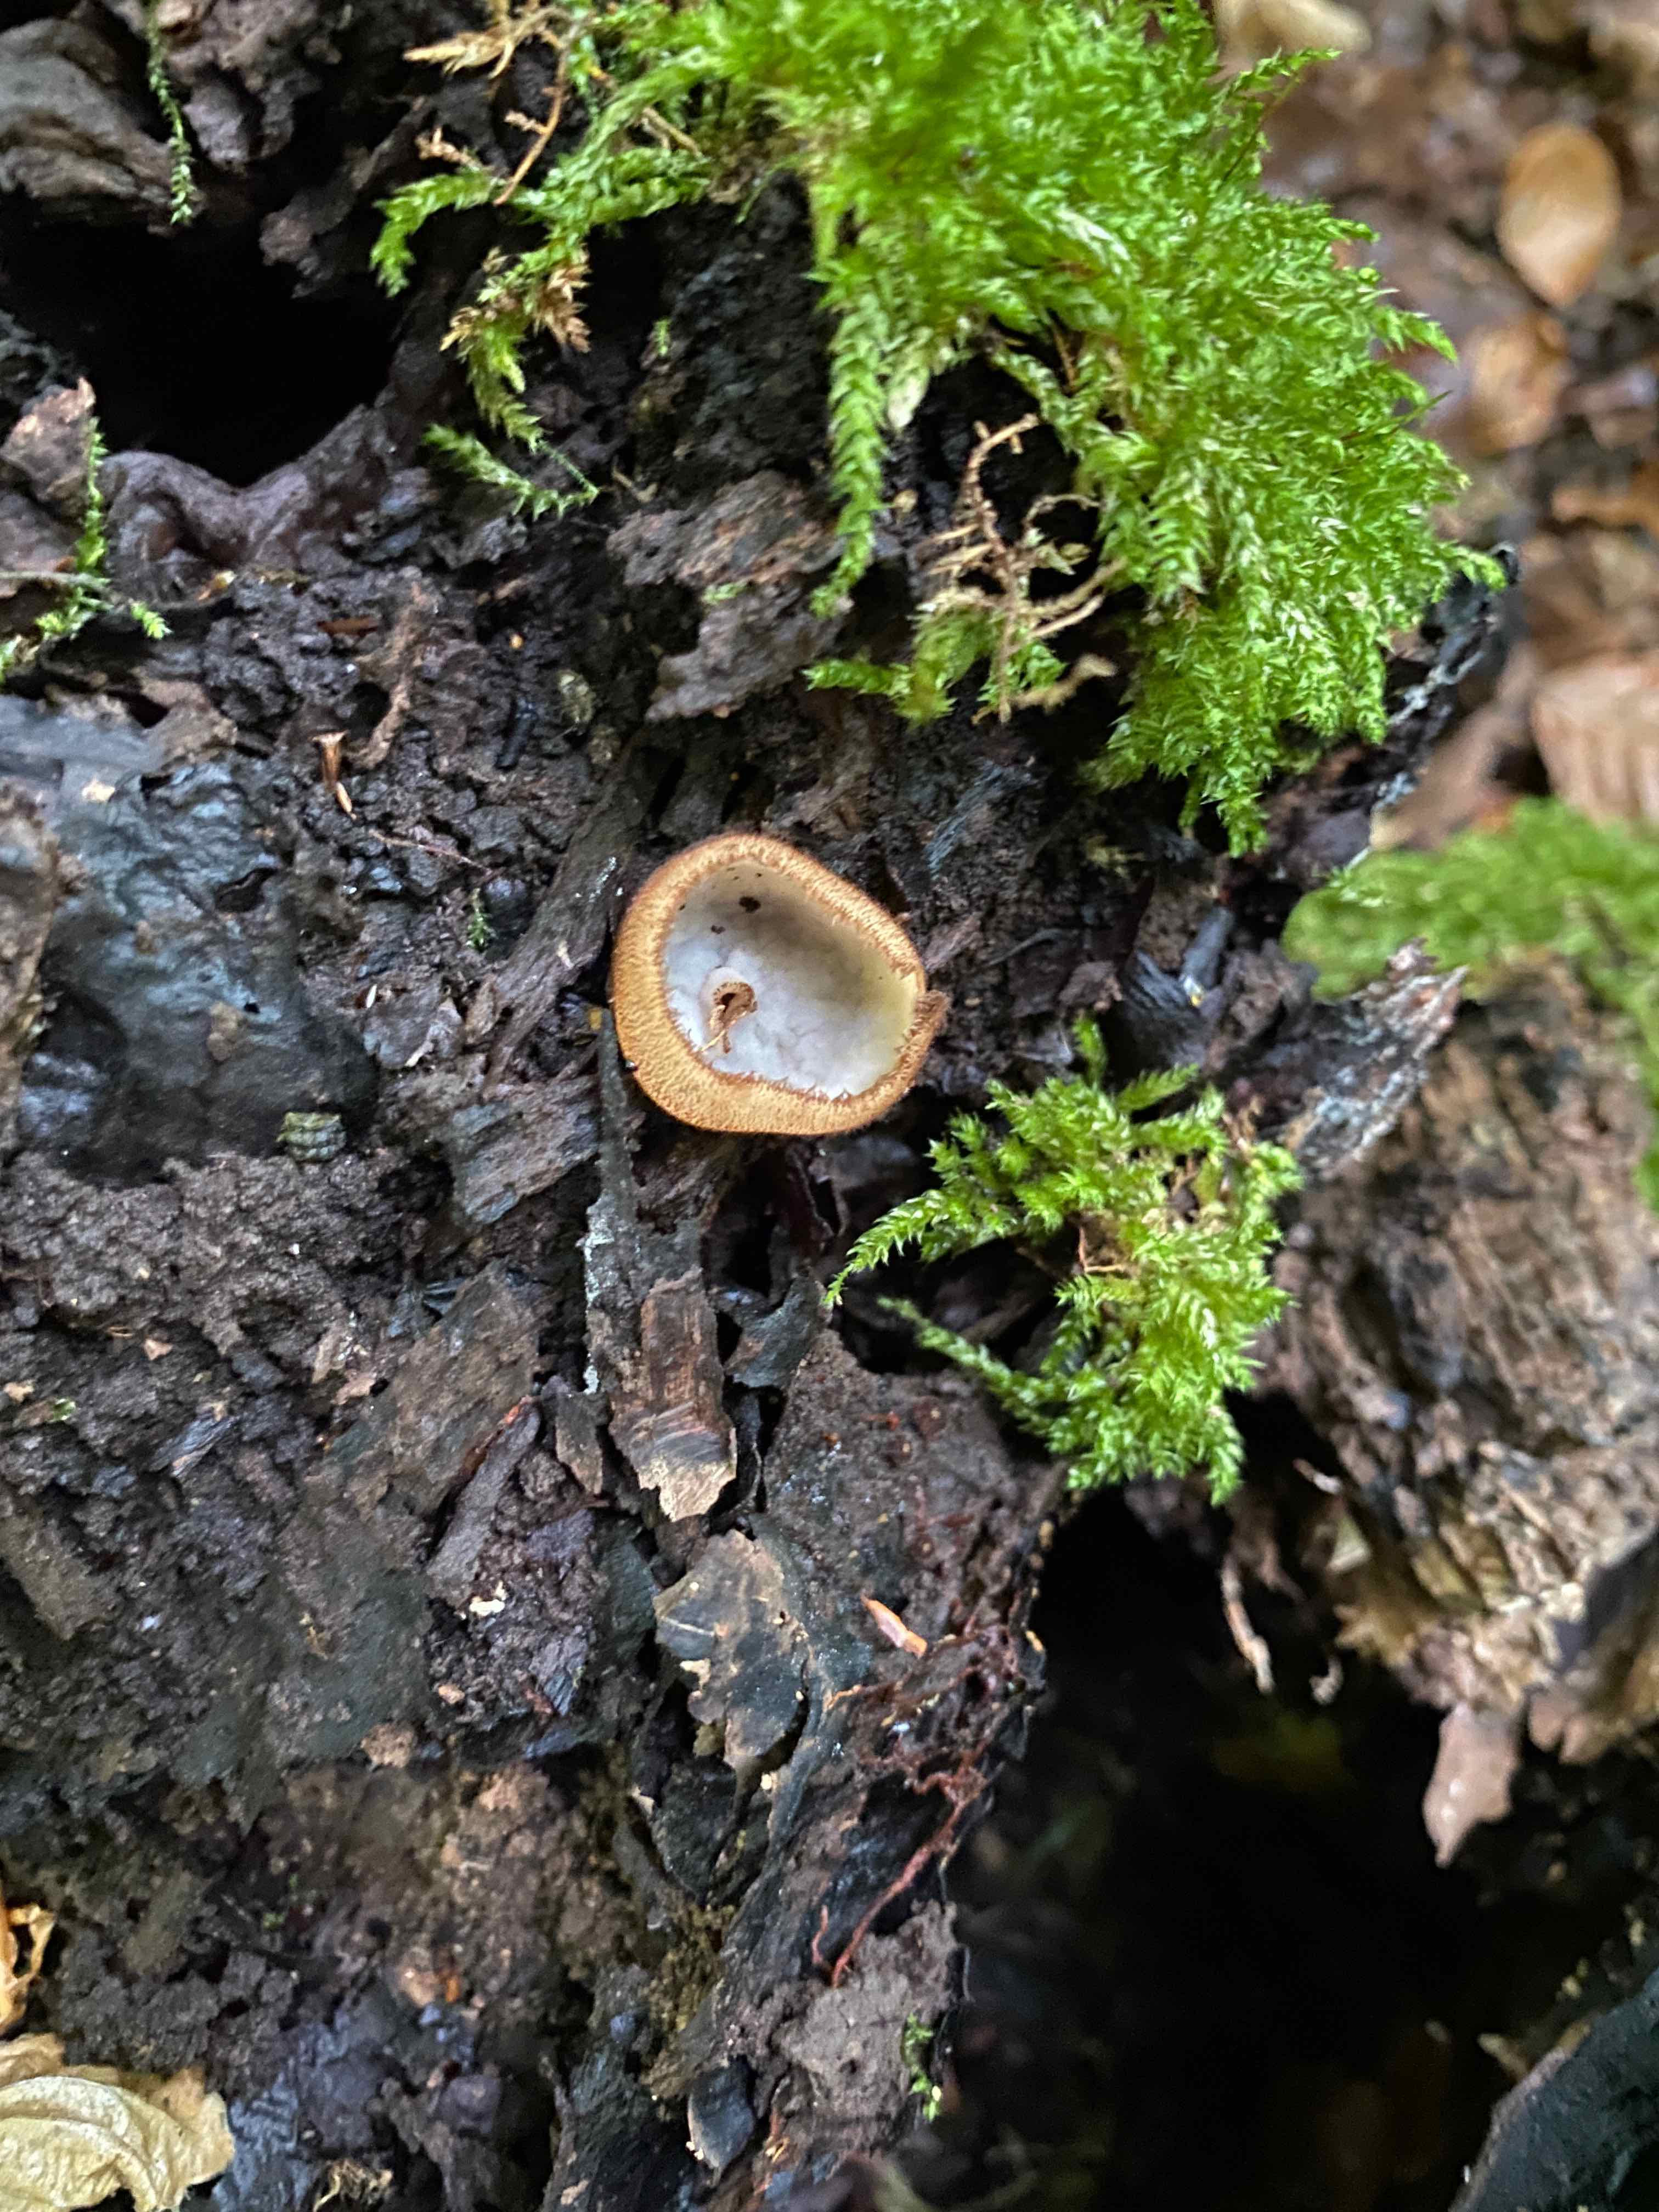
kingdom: Fungi
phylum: Ascomycota
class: Pezizomycetes
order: Pezizales
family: Pyronemataceae
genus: Humaria
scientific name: Humaria hemisphaerica
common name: halvkugleformet børstebæger
